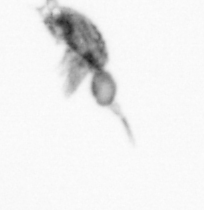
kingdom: Animalia
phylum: Arthropoda
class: Copepoda
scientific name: Copepoda
